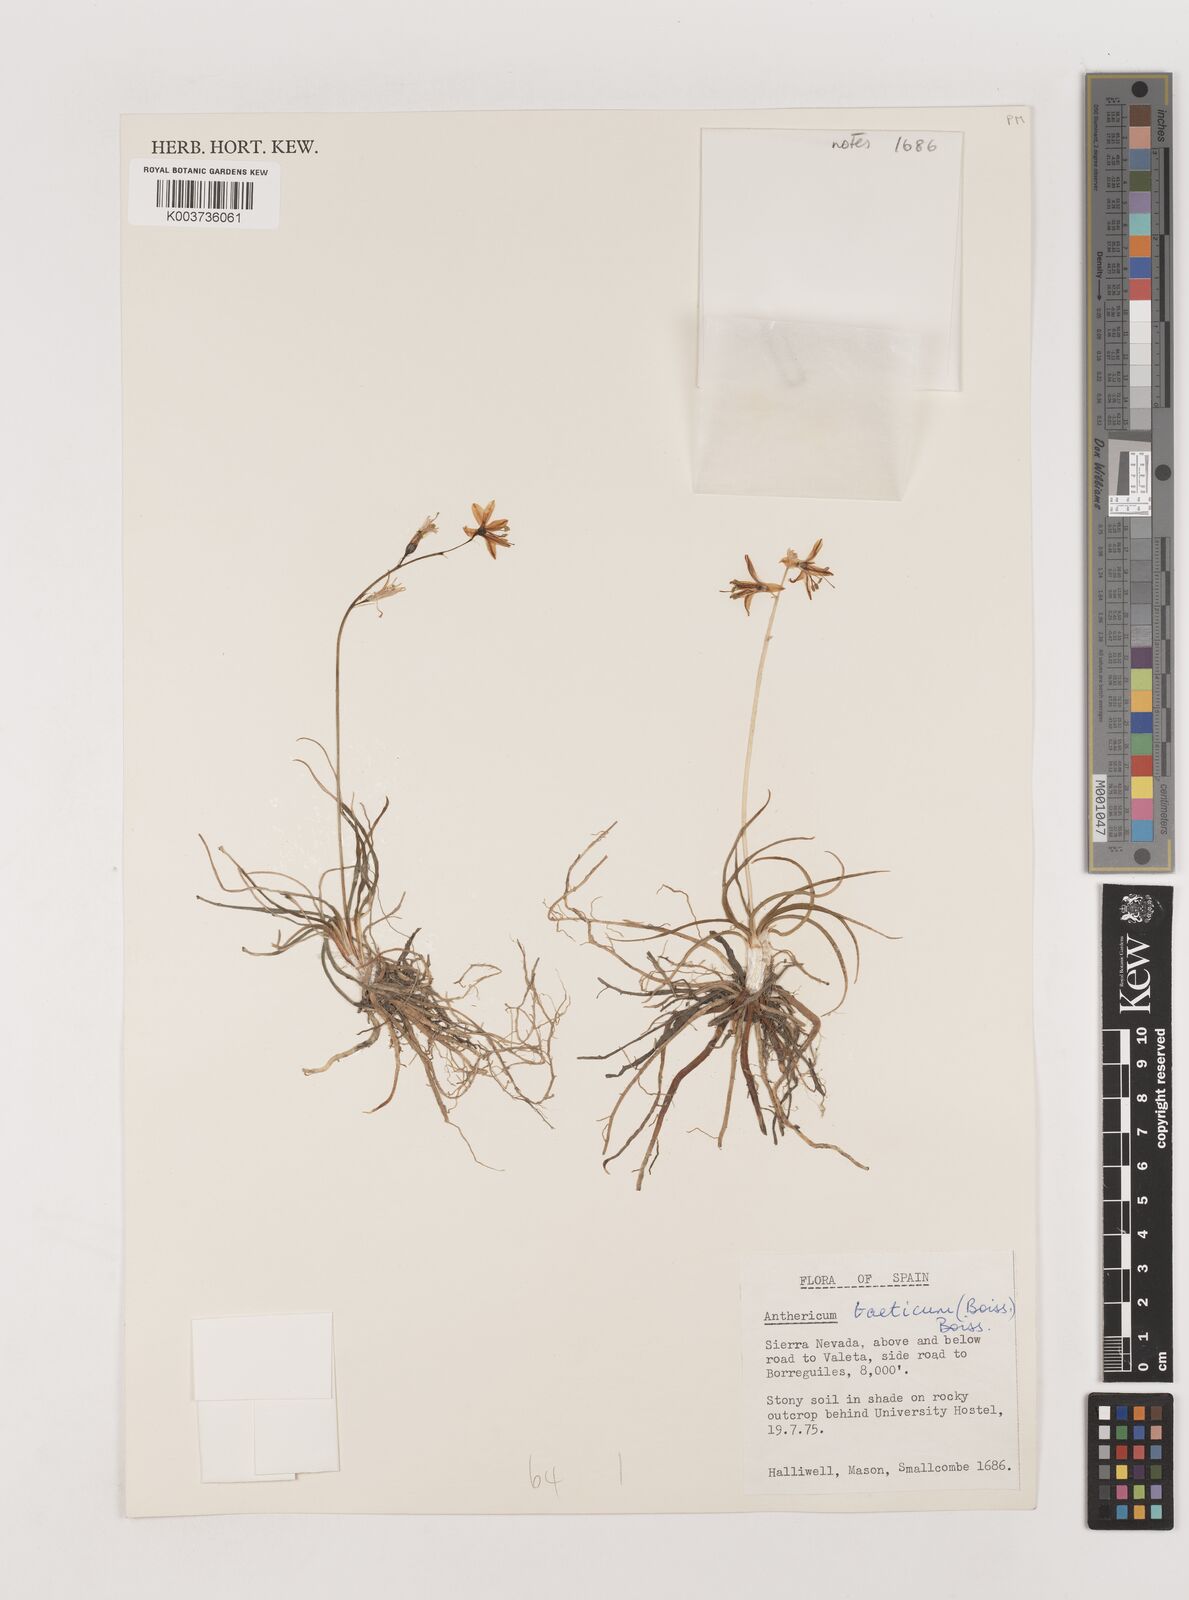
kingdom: Plantae
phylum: Tracheophyta
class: Liliopsida
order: Asparagales
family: Asparagaceae
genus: Anthericum
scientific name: Anthericum liliago
